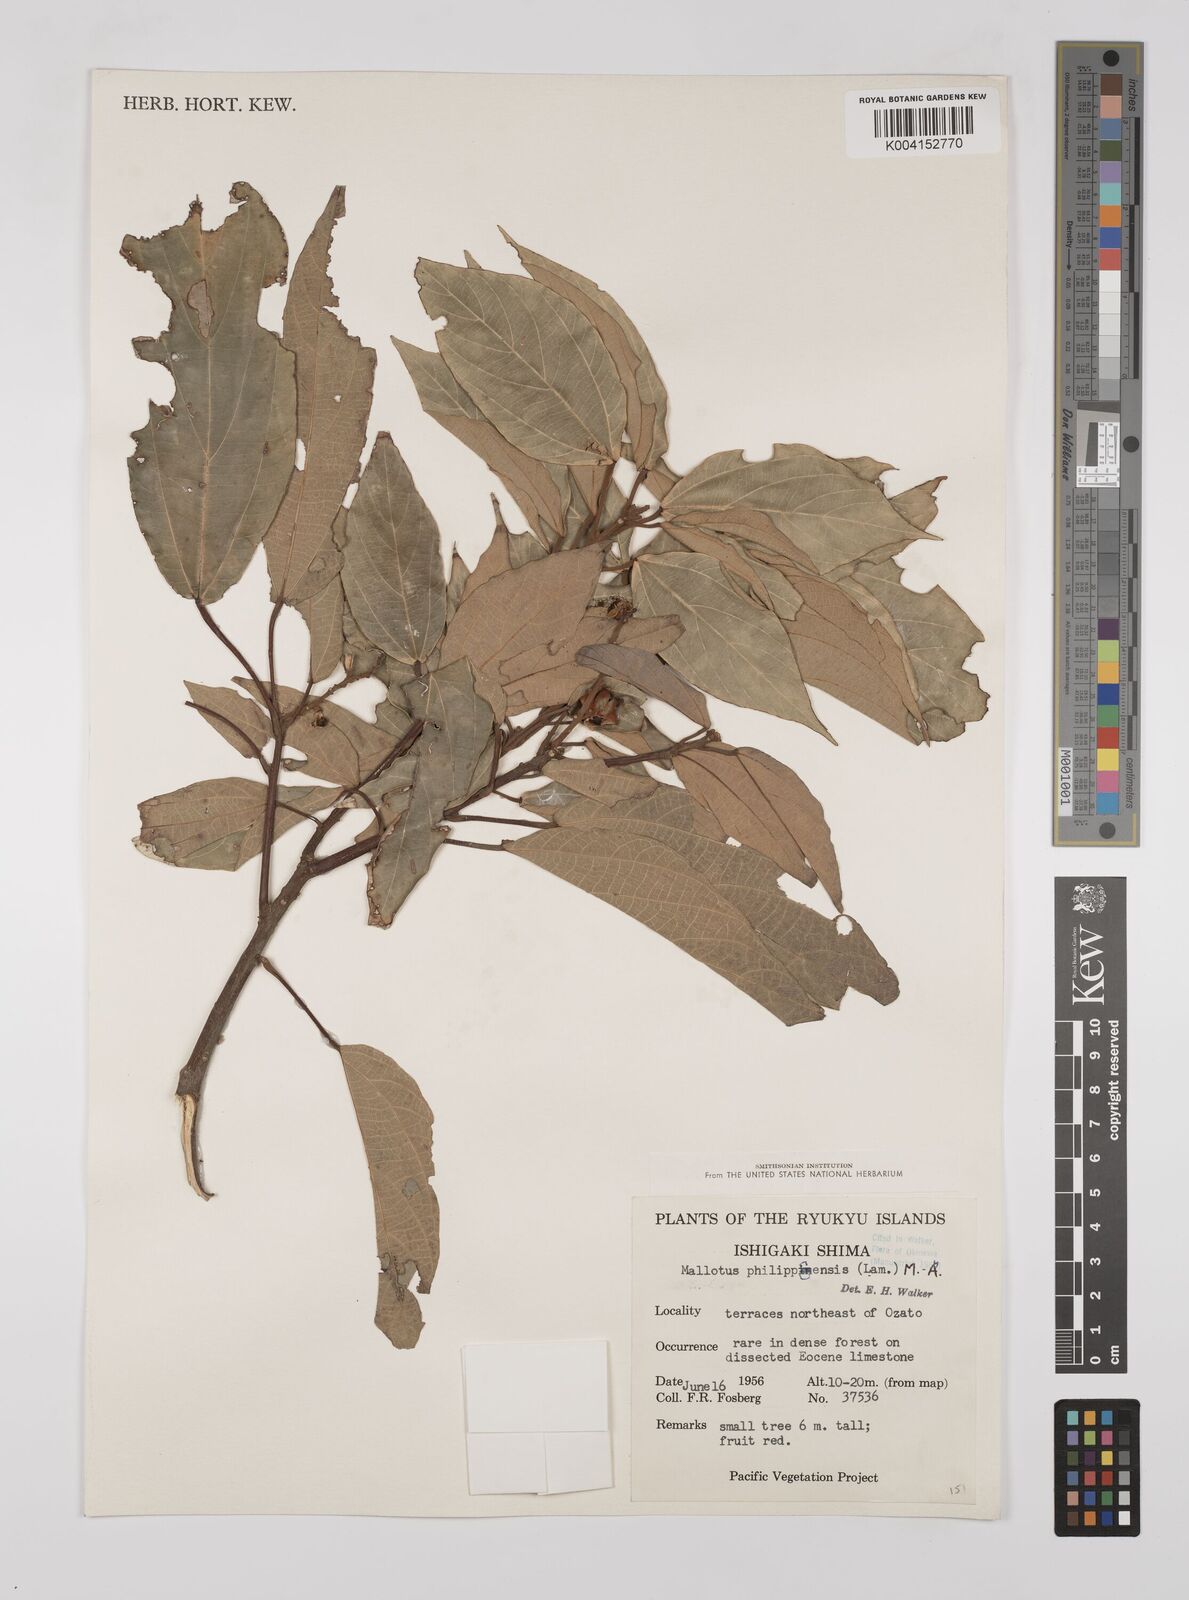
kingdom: Plantae
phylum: Tracheophyta
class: Magnoliopsida
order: Malpighiales
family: Euphorbiaceae
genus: Mallotus
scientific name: Mallotus philippensis
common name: Kamala tree
